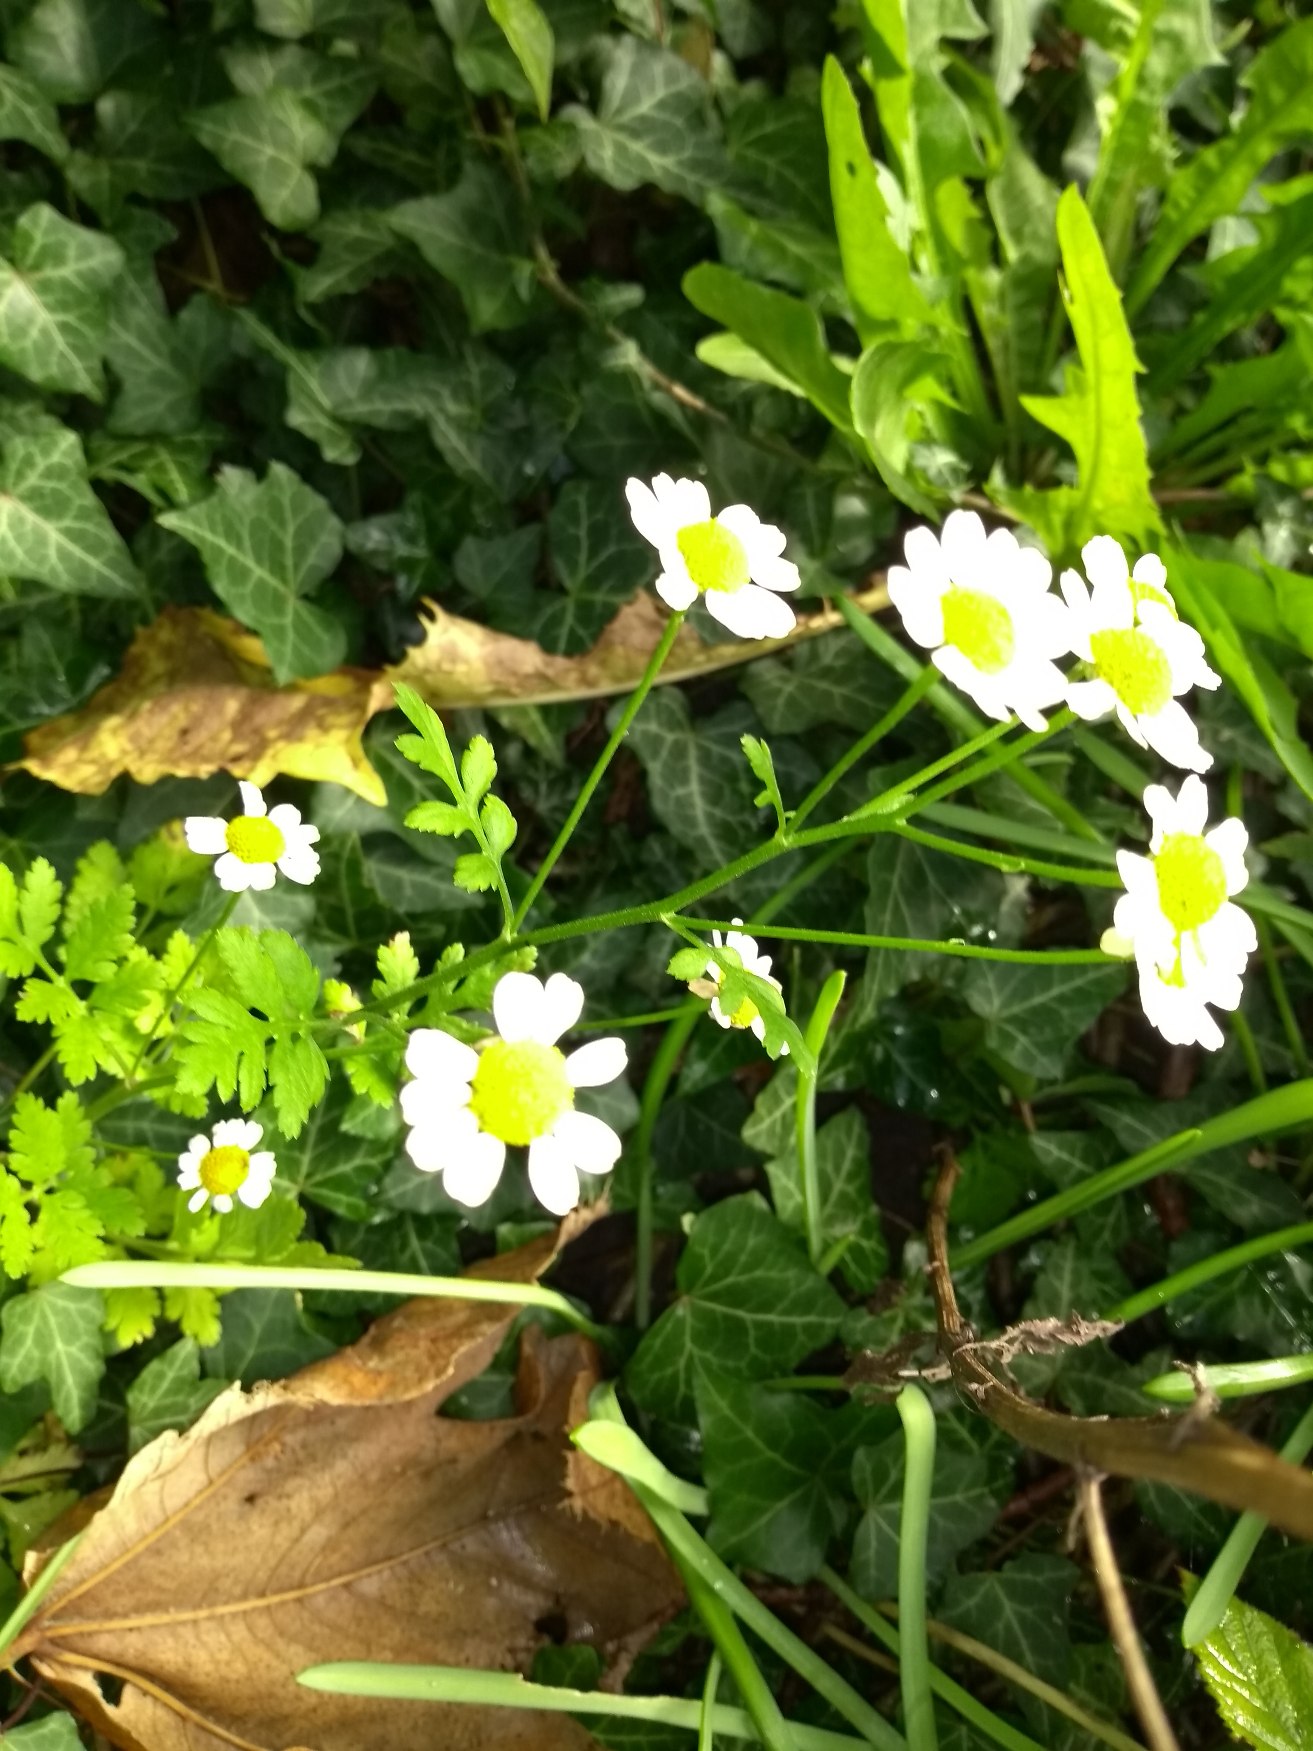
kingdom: Plantae
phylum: Tracheophyta
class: Magnoliopsida
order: Asterales
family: Asteraceae
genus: Tanacetum
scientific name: Tanacetum parthenium
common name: Matrem
